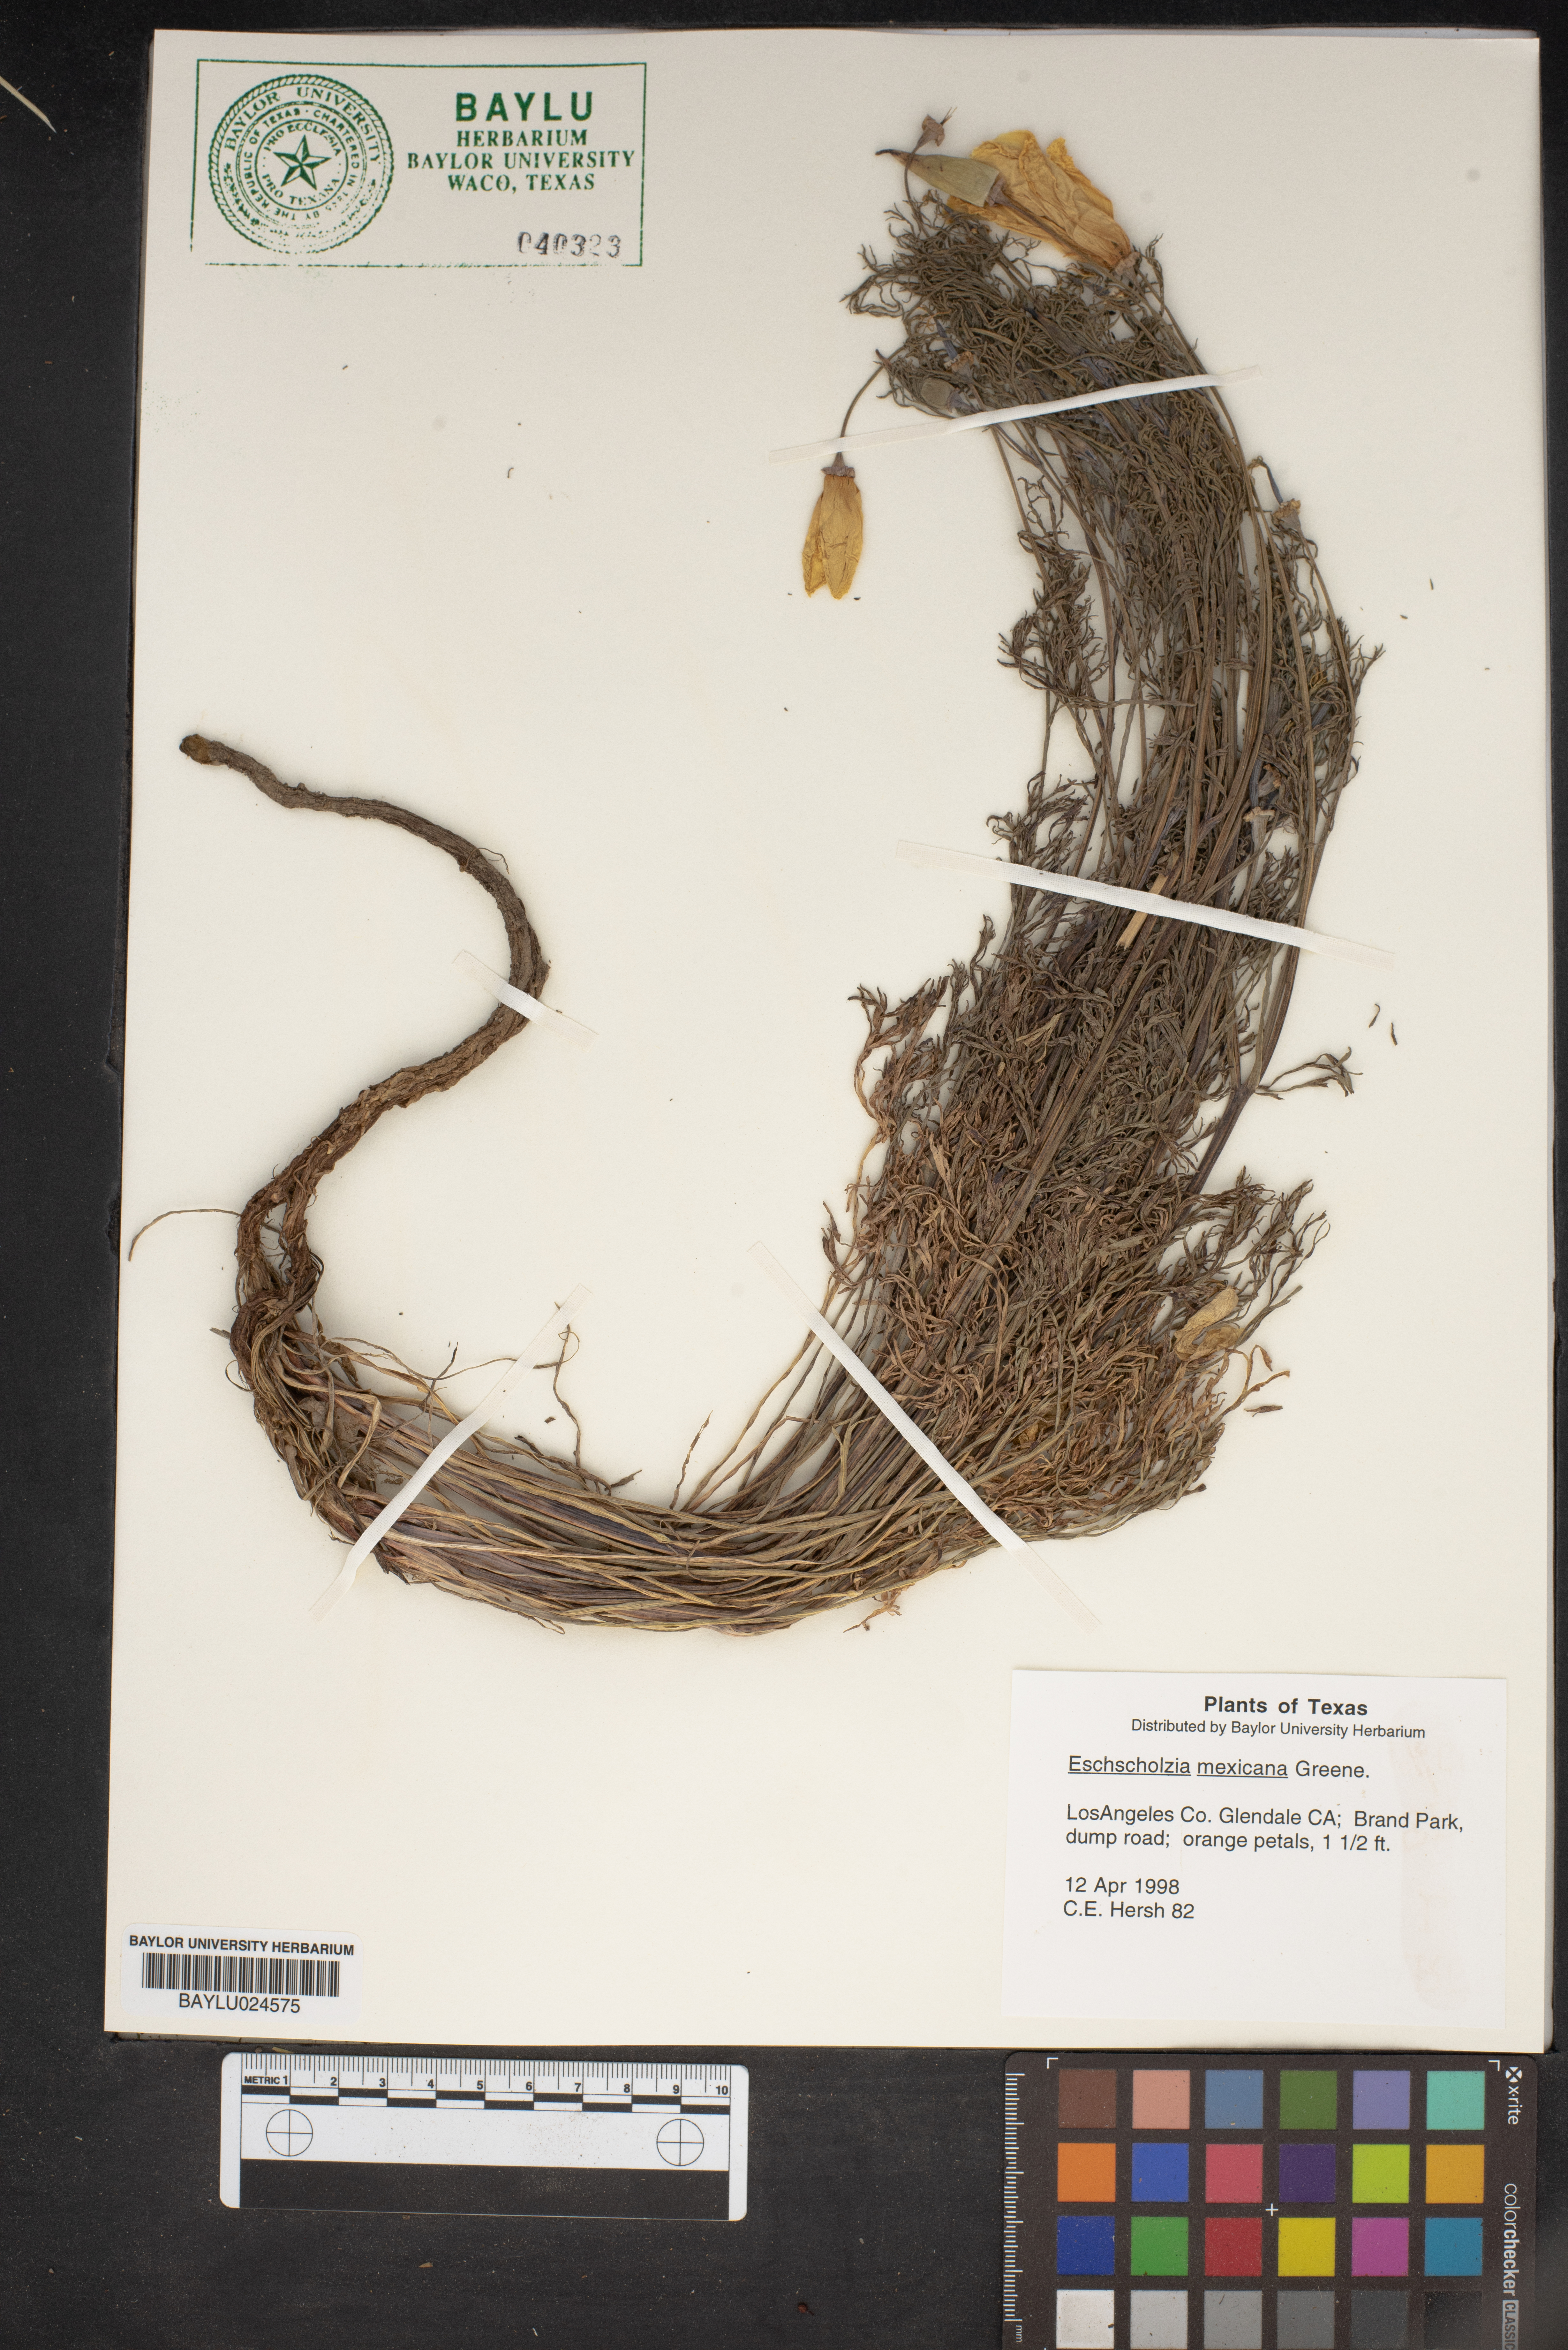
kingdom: Plantae
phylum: Tracheophyta
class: Magnoliopsida
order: Ranunculales
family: Papaveraceae
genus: Eschscholzia
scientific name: Eschscholzia californica
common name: California poppy
